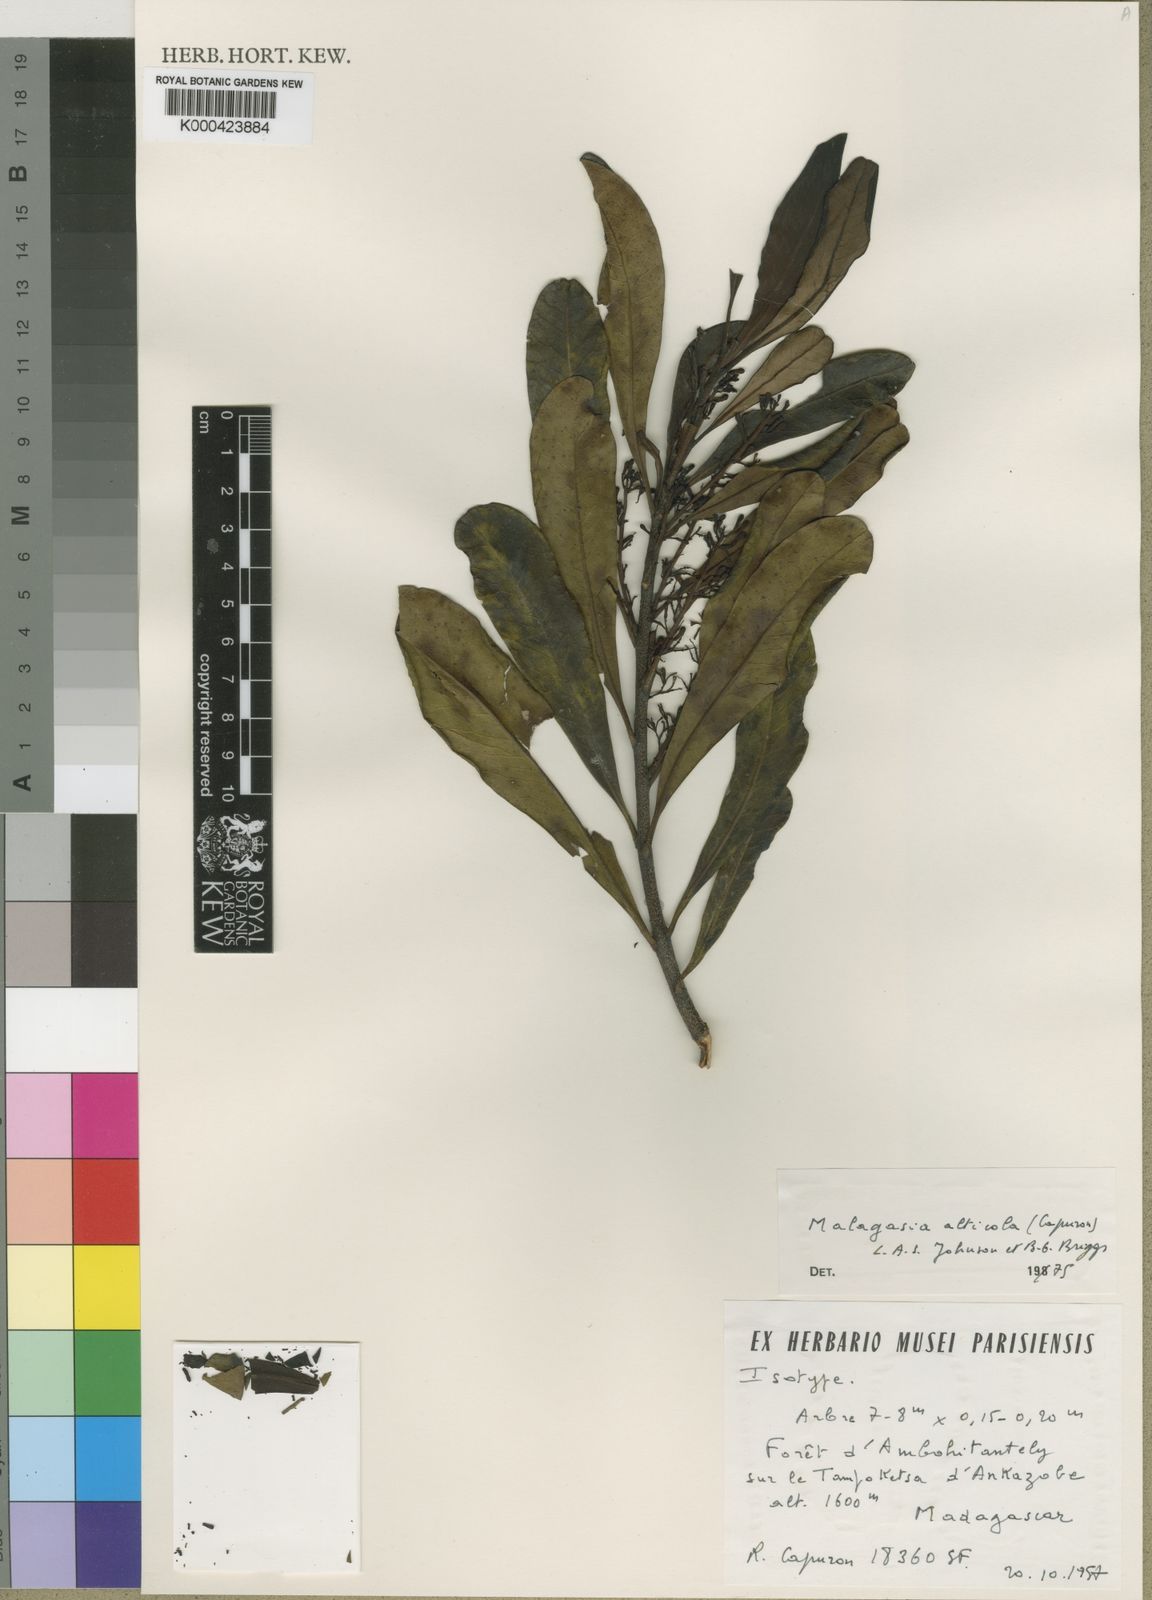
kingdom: Plantae
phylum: Tracheophyta
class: Magnoliopsida
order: Proteales
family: Proteaceae
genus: Malagasia
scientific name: Malagasia alticola
